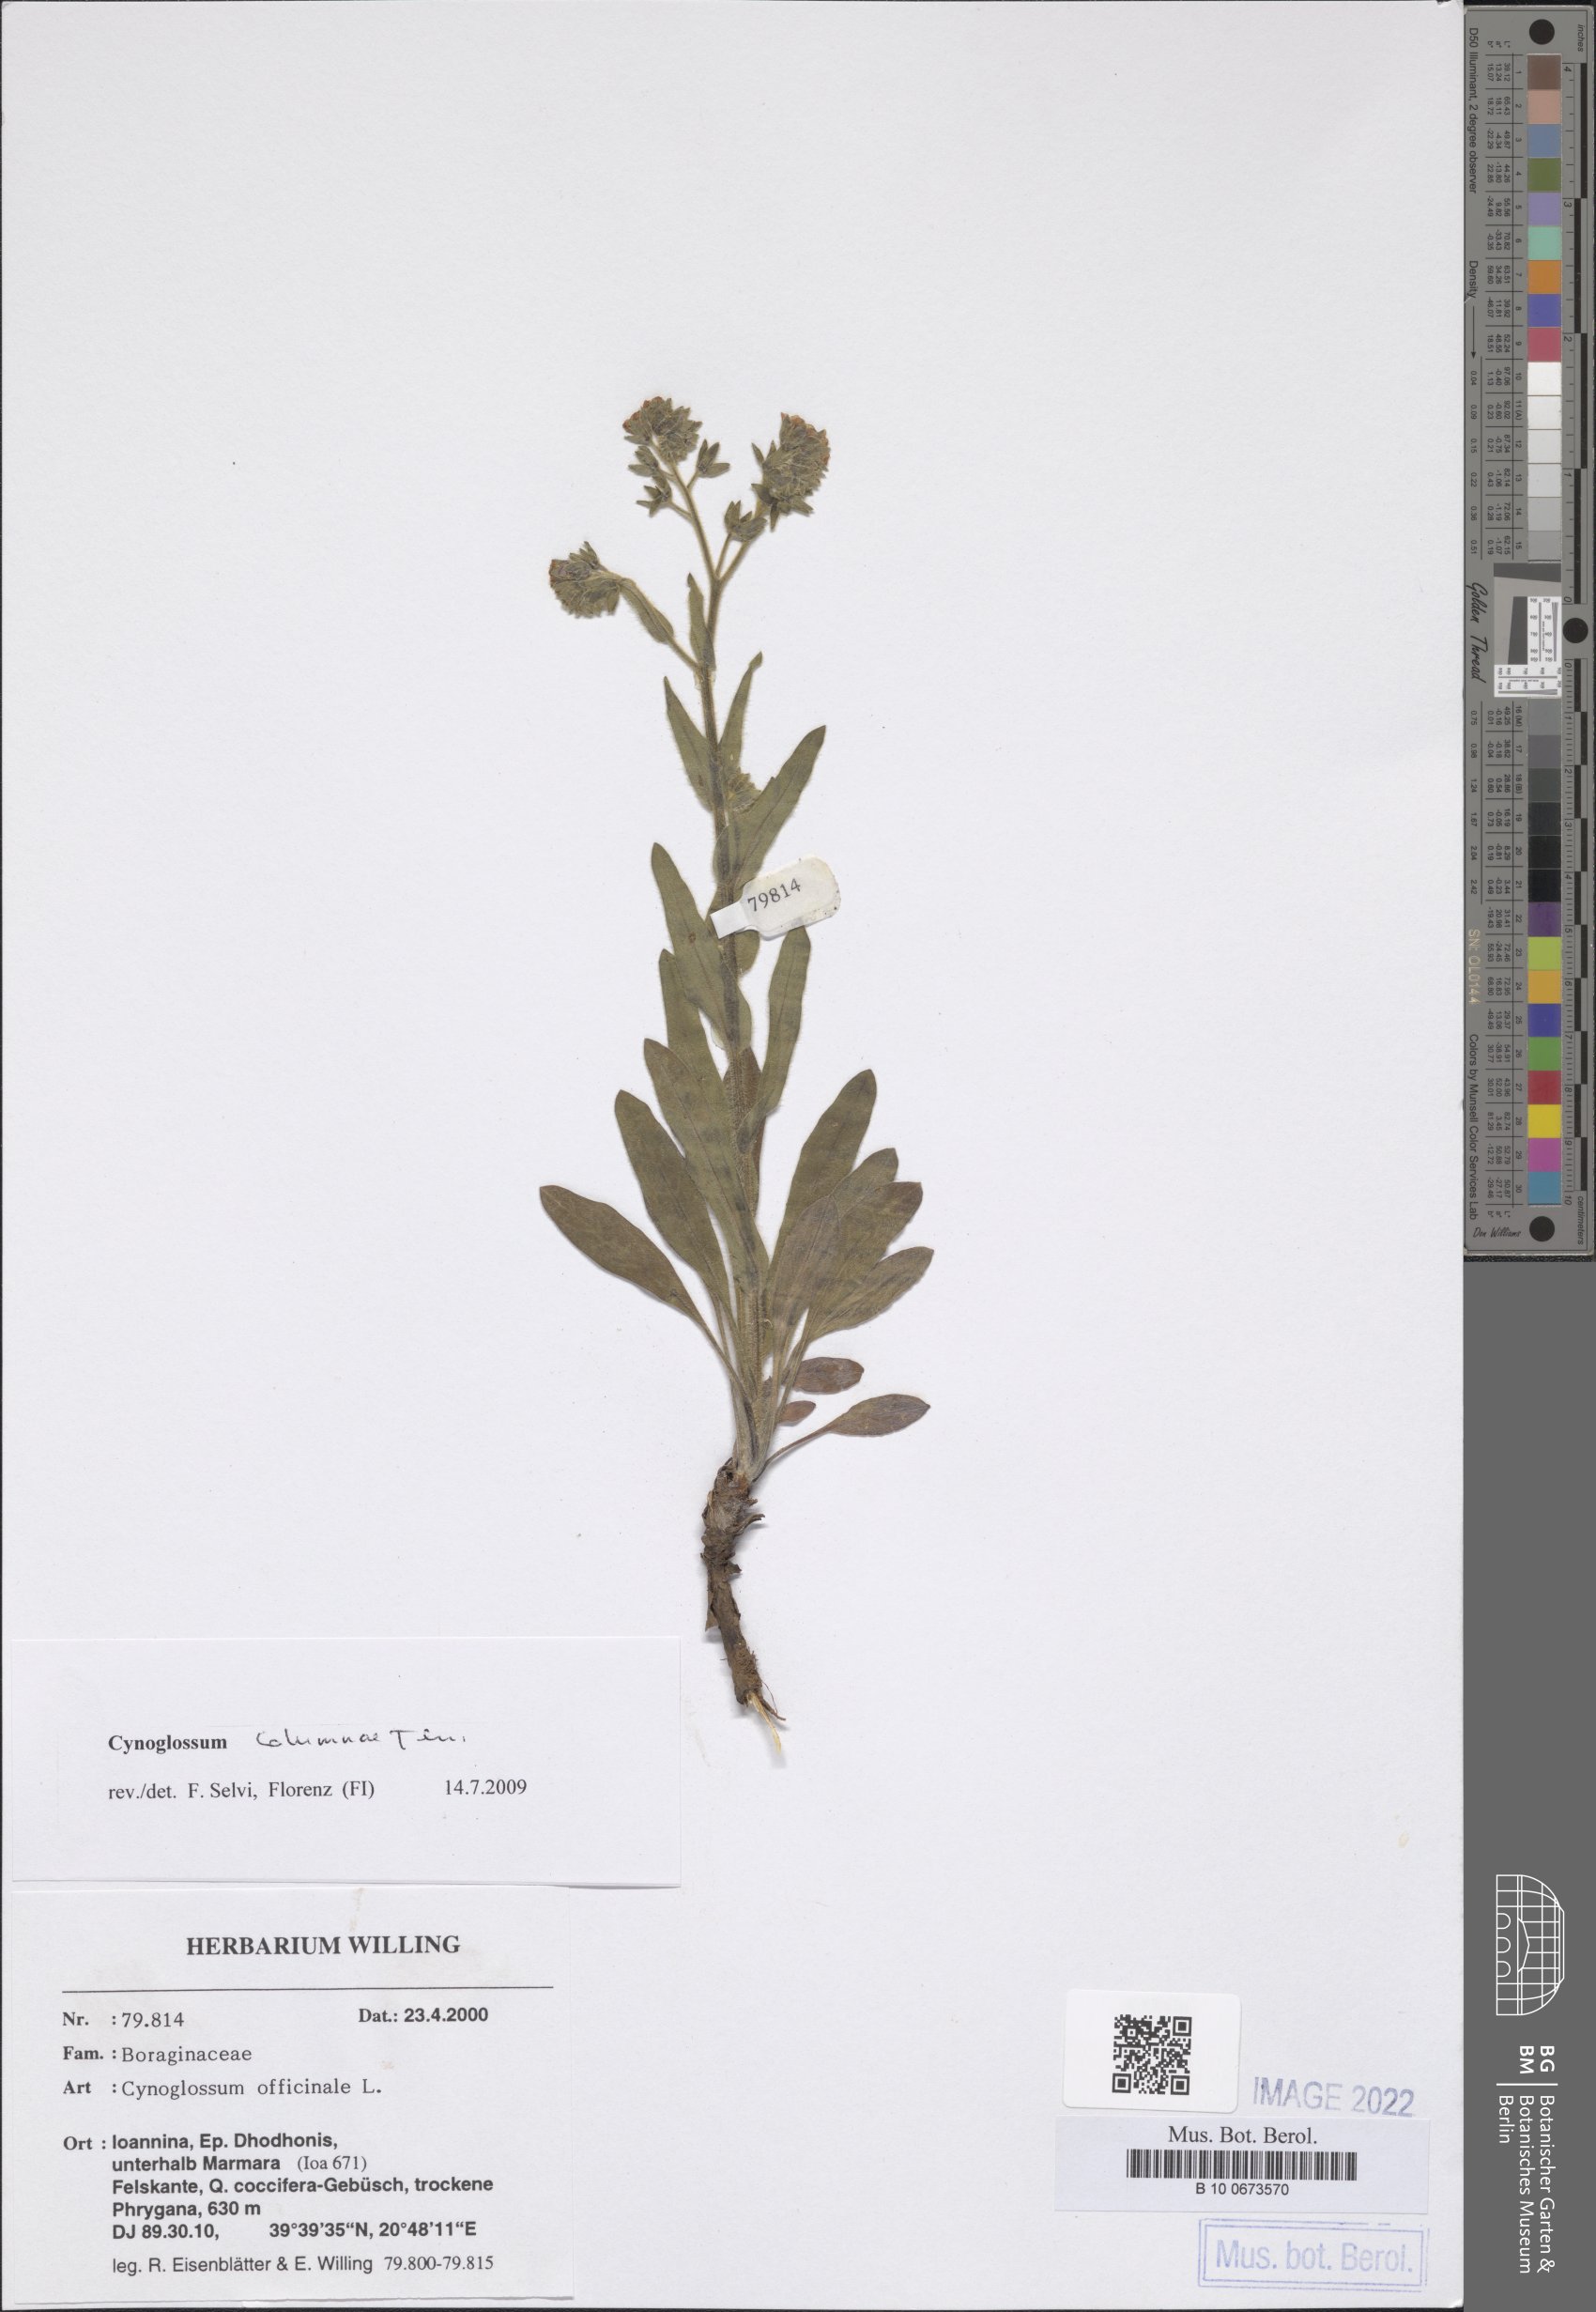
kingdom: Plantae
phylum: Tracheophyta
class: Magnoliopsida
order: Boraginales
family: Boraginaceae
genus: Rindera
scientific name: Rindera columnae
